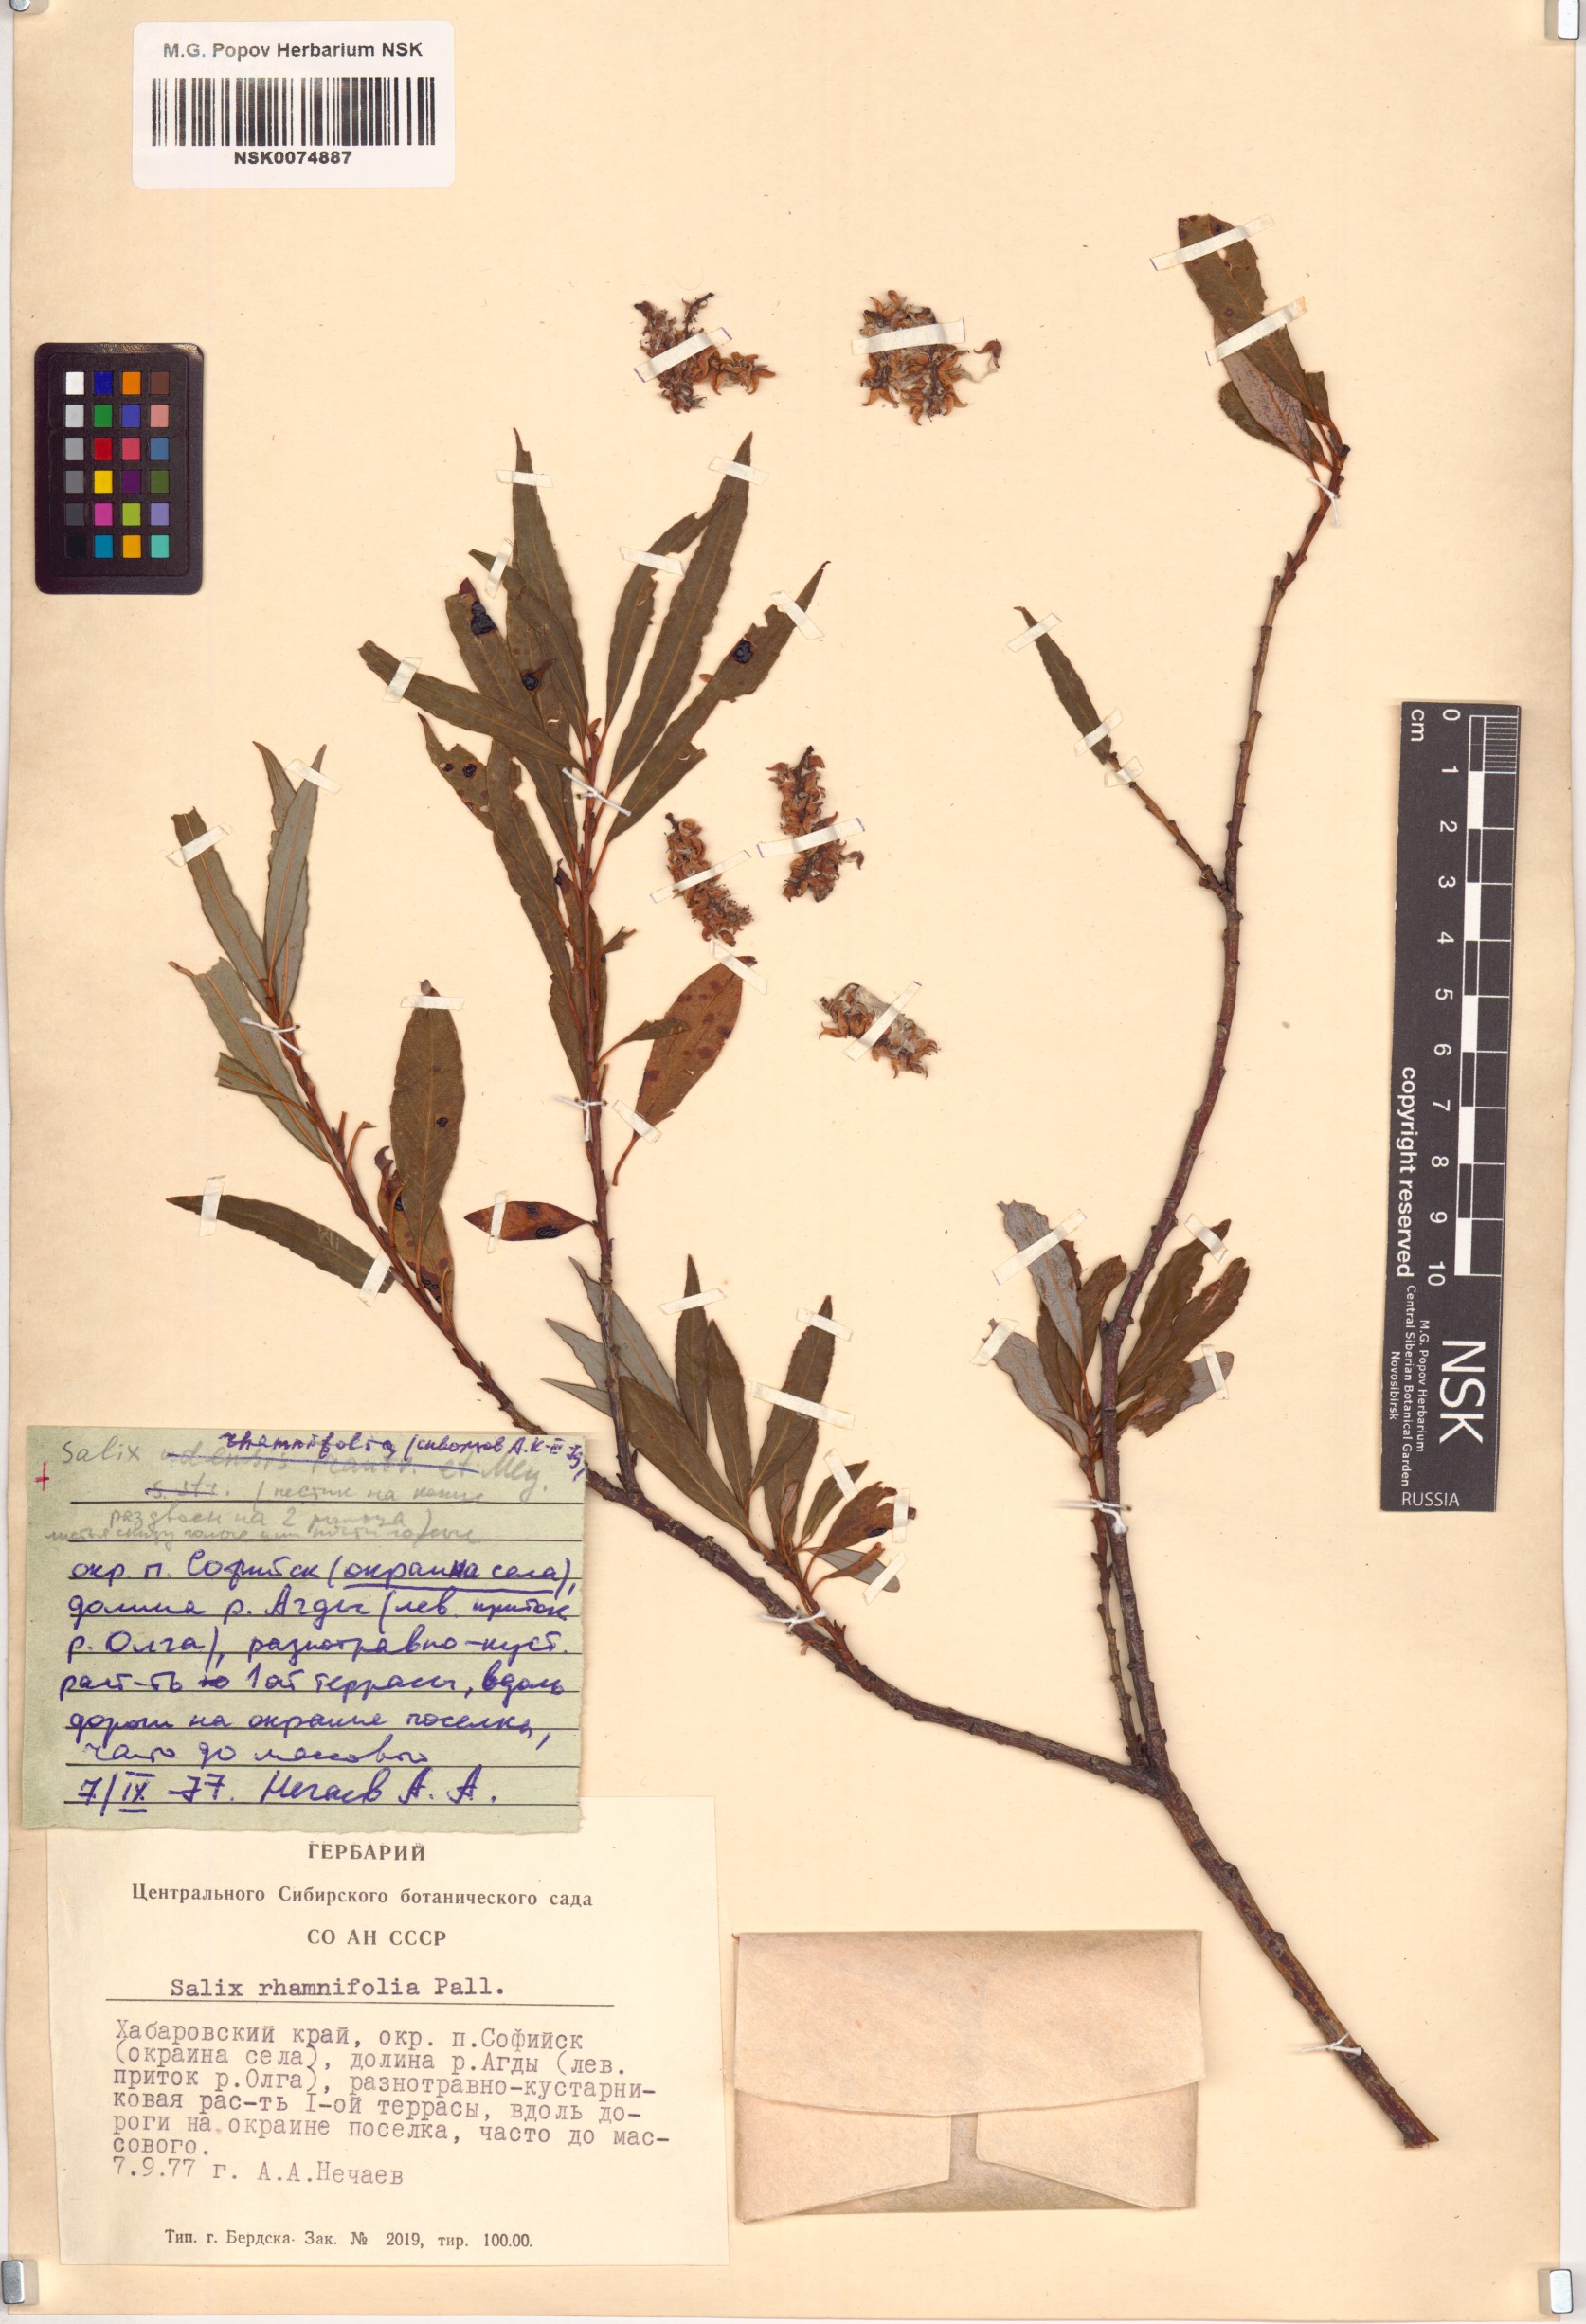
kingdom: Plantae
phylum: Tracheophyta
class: Magnoliopsida
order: Malpighiales
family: Salicaceae
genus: Salix
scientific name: Salix rhamnifolia
